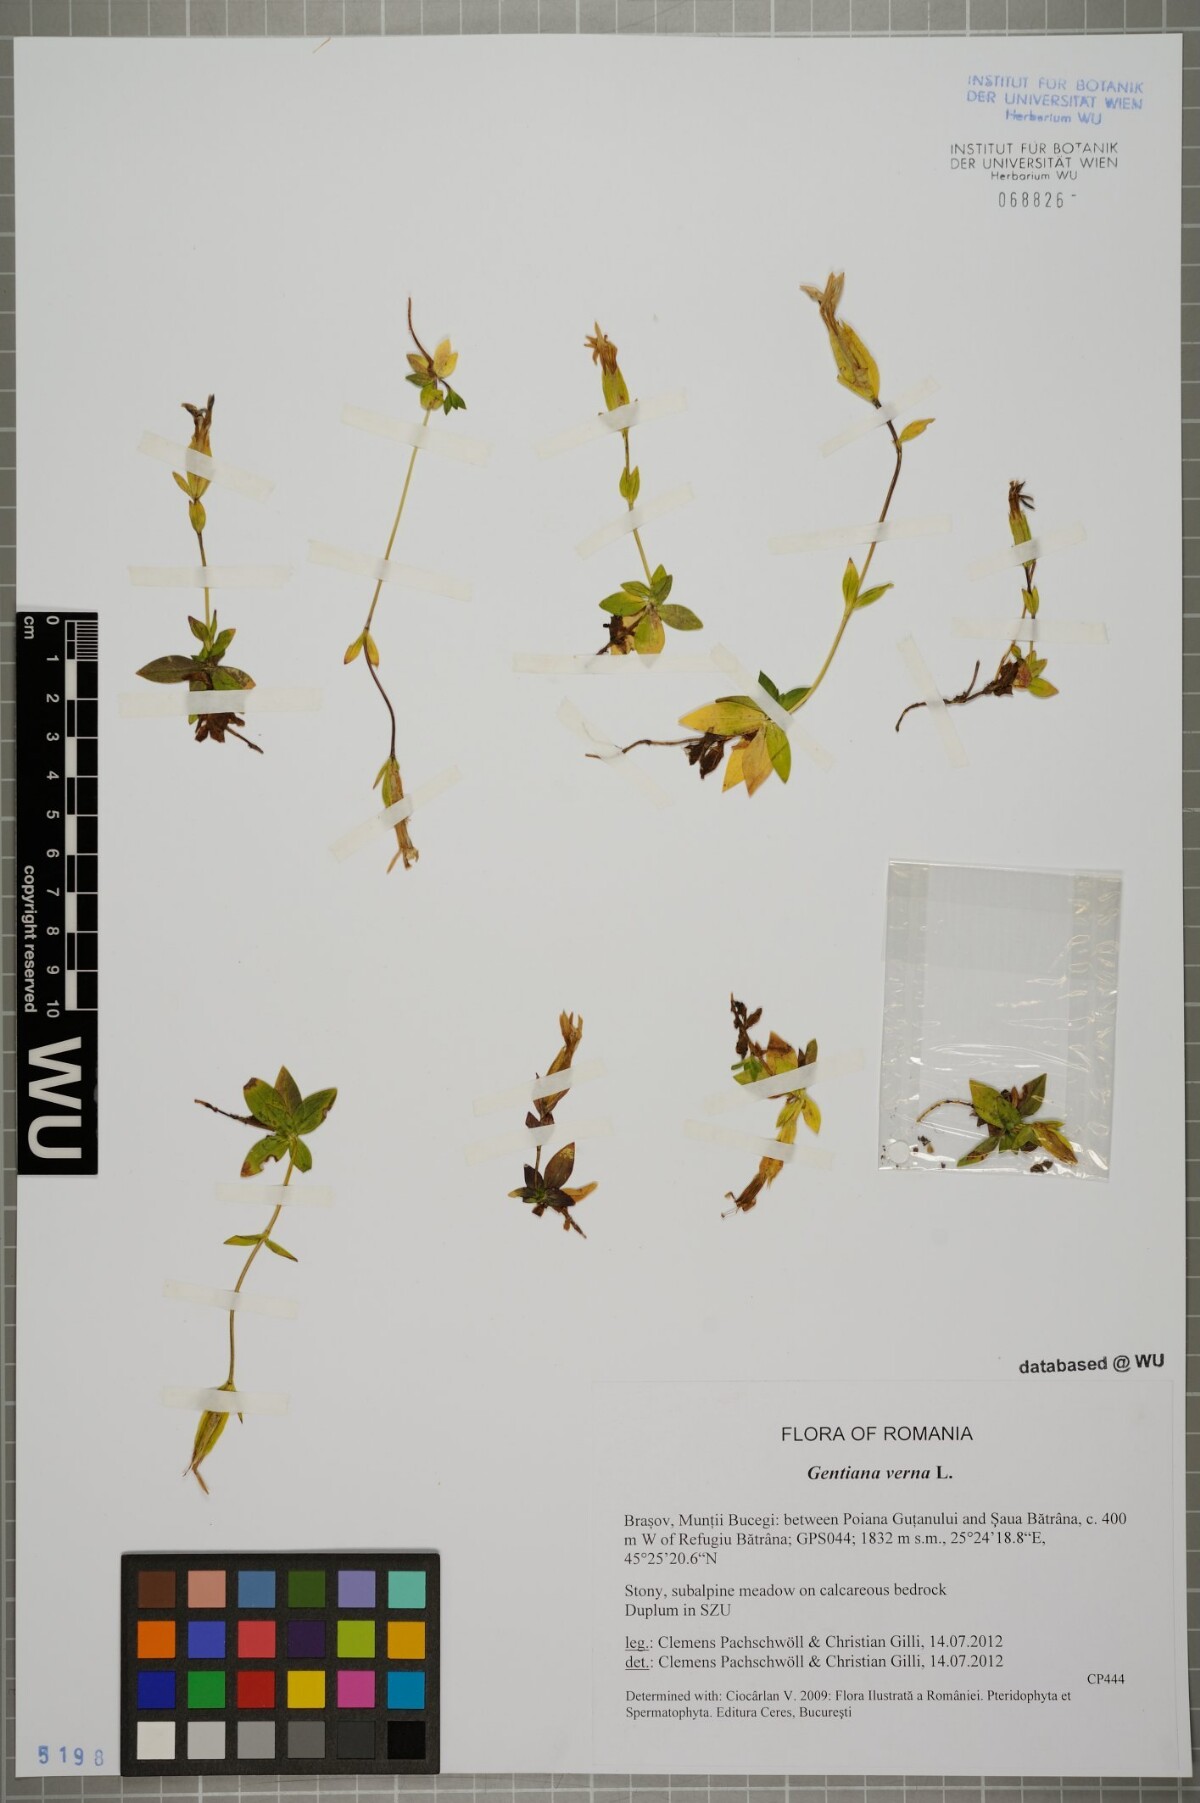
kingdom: Plantae
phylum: Tracheophyta
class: Magnoliopsida
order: Gentianales
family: Gentianaceae
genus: Gentiana
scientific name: Gentiana verna
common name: Spring gentian
